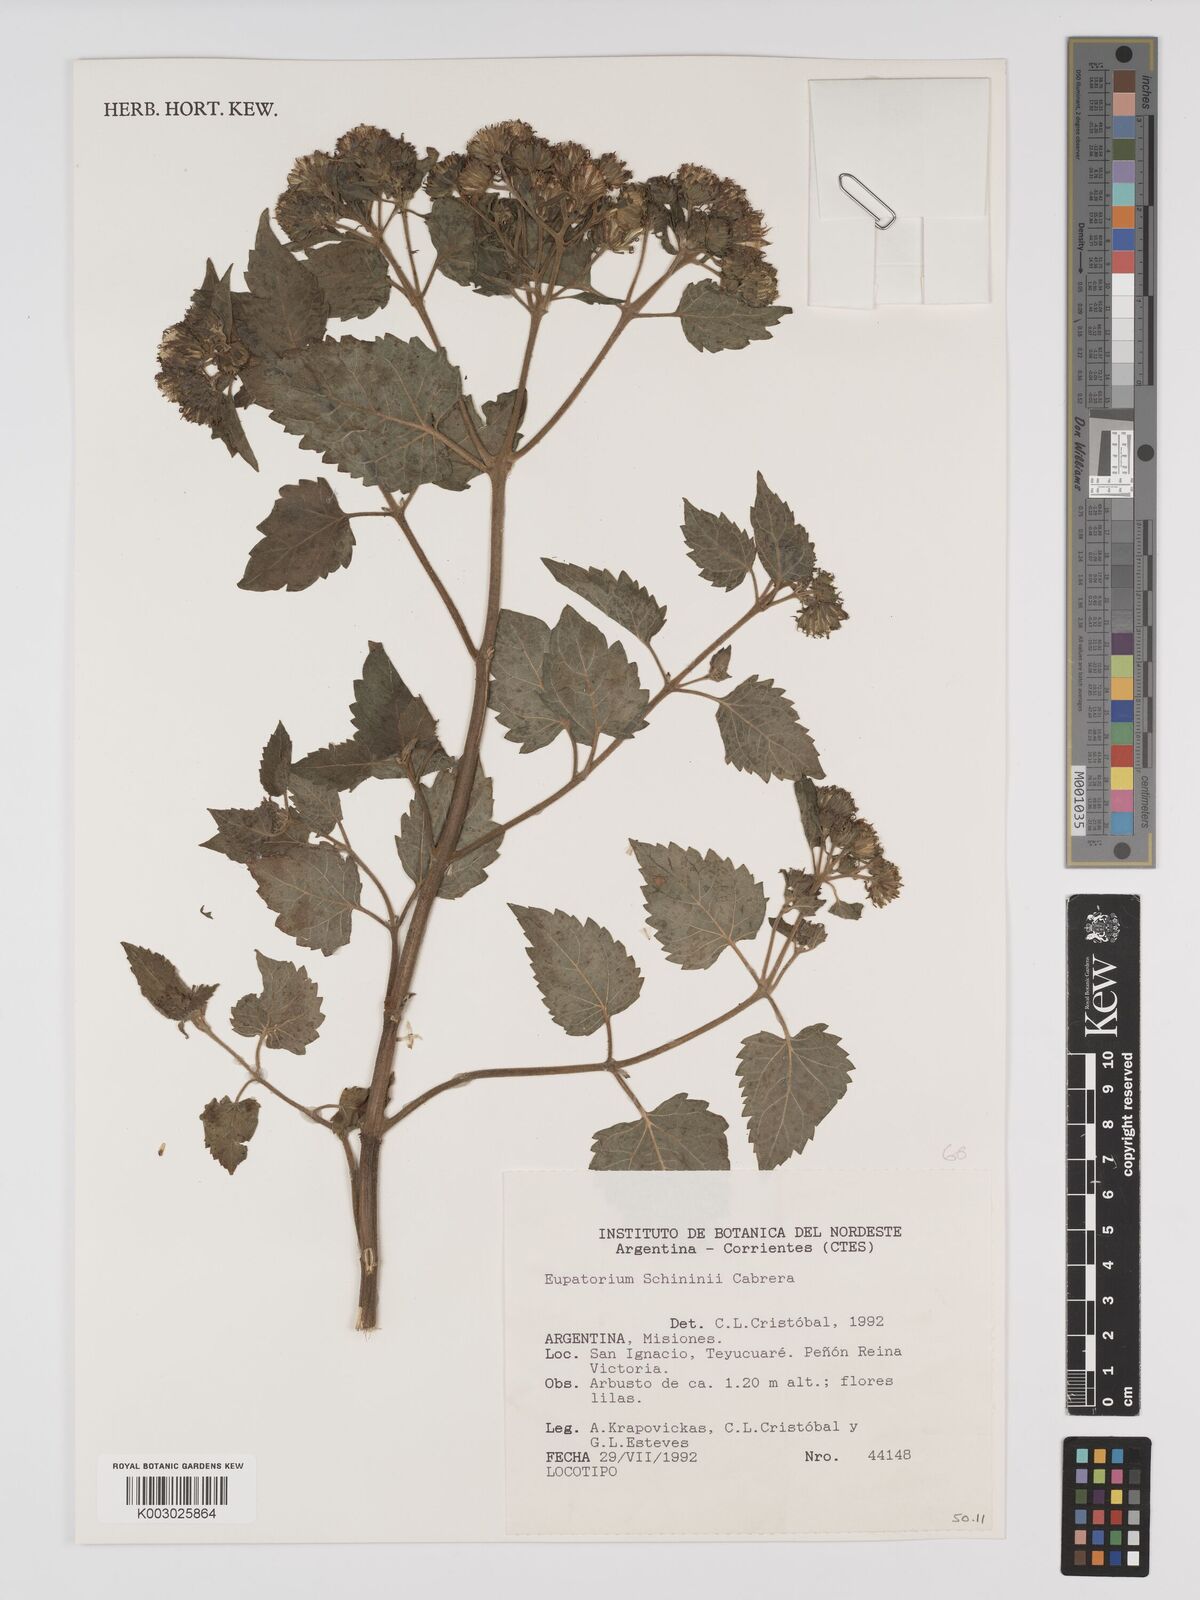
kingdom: Plantae
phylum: Tracheophyta
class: Magnoliopsida
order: Asterales
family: Asteraceae
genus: Ayapanopsis
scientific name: Ayapanopsis esperanzae
